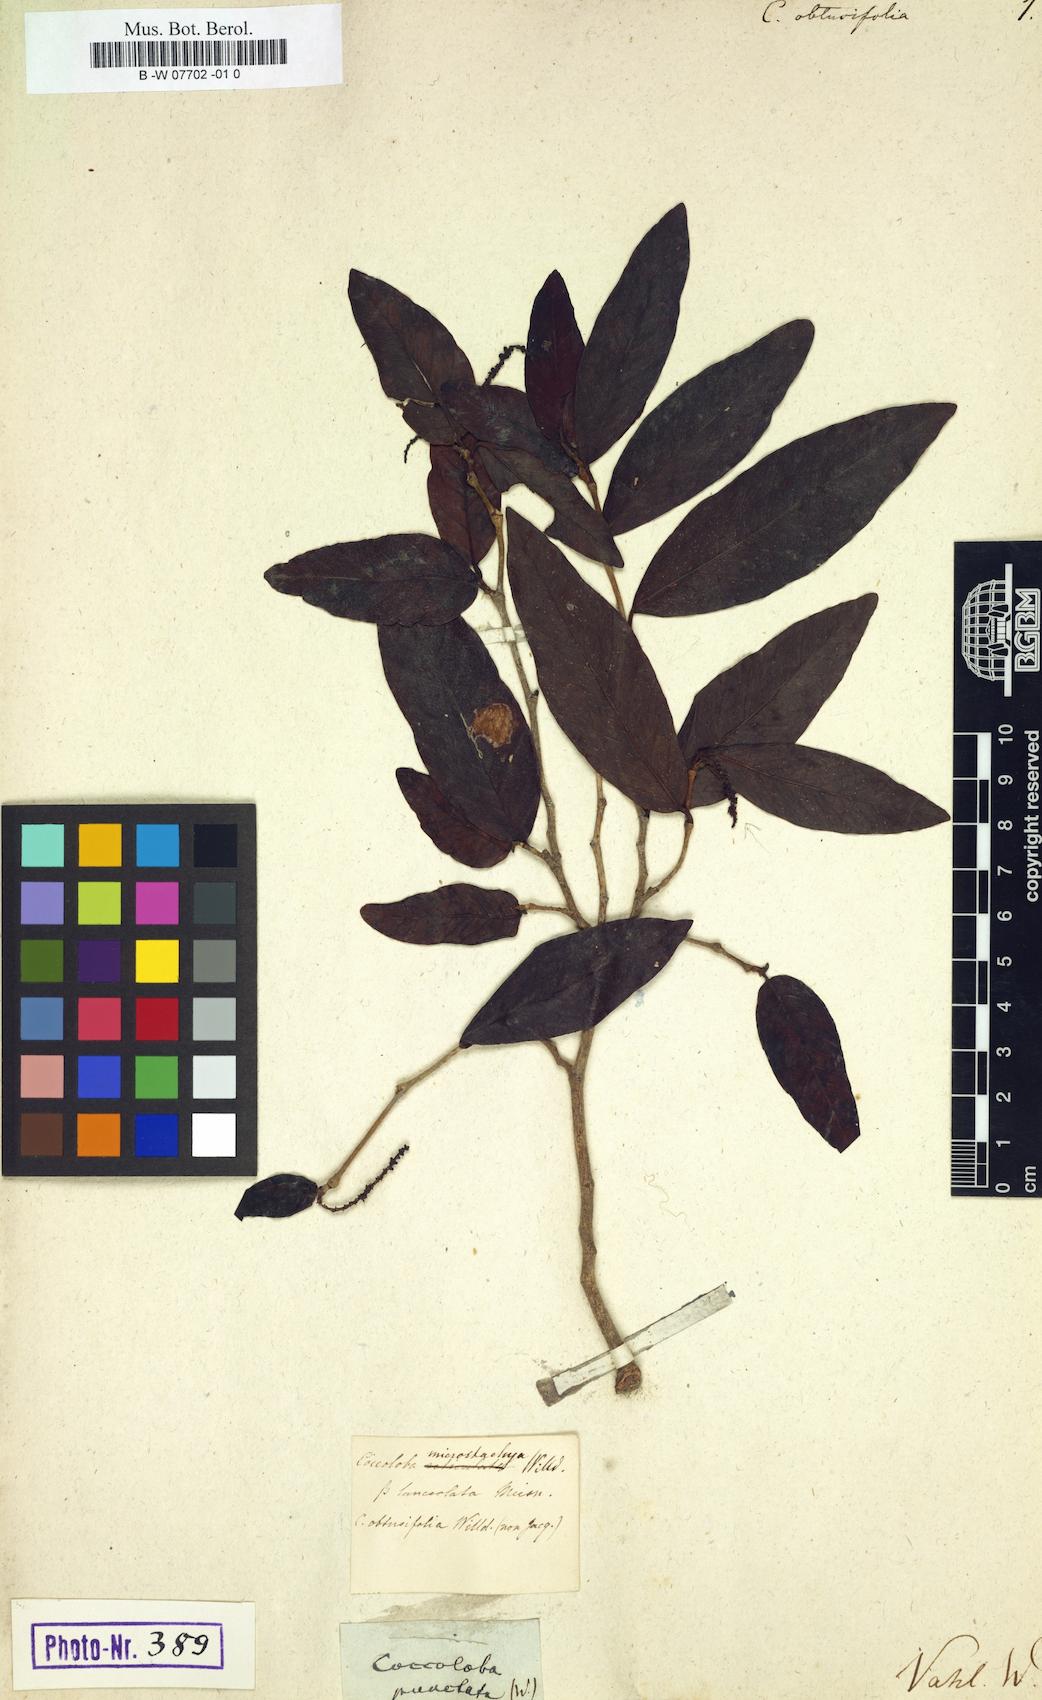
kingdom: Plantae
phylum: Tracheophyta
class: Magnoliopsida
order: Caryophyllales
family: Polygonaceae
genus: Coccoloba
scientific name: Coccoloba obtusifolia
